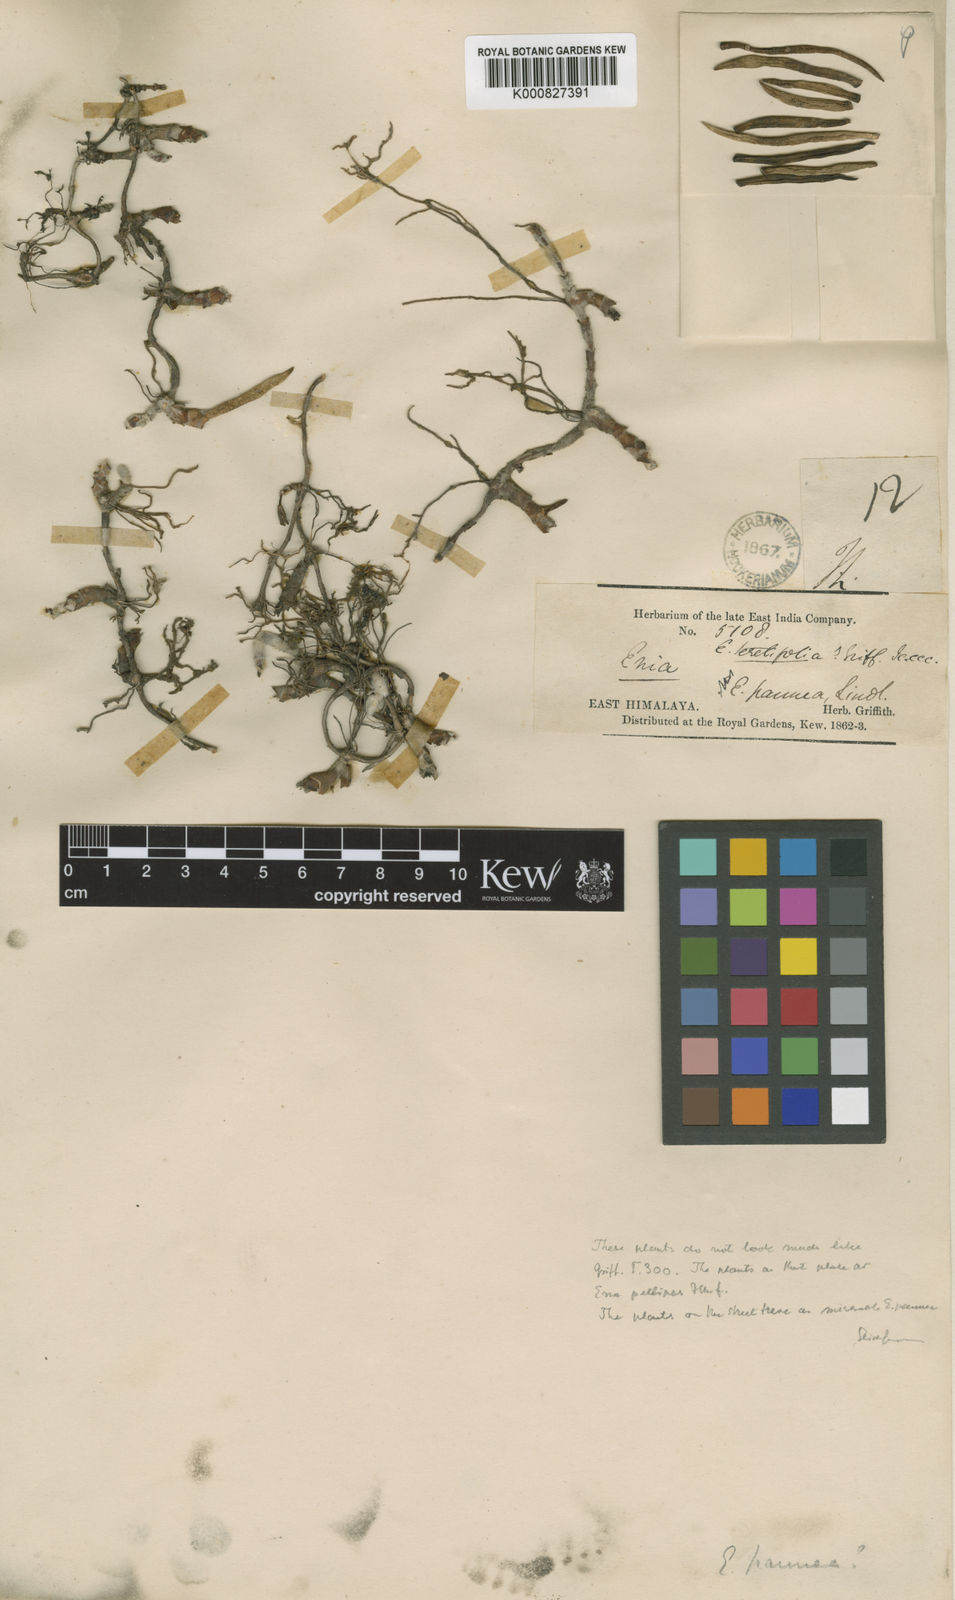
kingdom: Plantae
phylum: Tracheophyta
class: Liliopsida
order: Asparagales
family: Orchidaceae
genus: Strongyleria
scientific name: Strongyleria pannea
